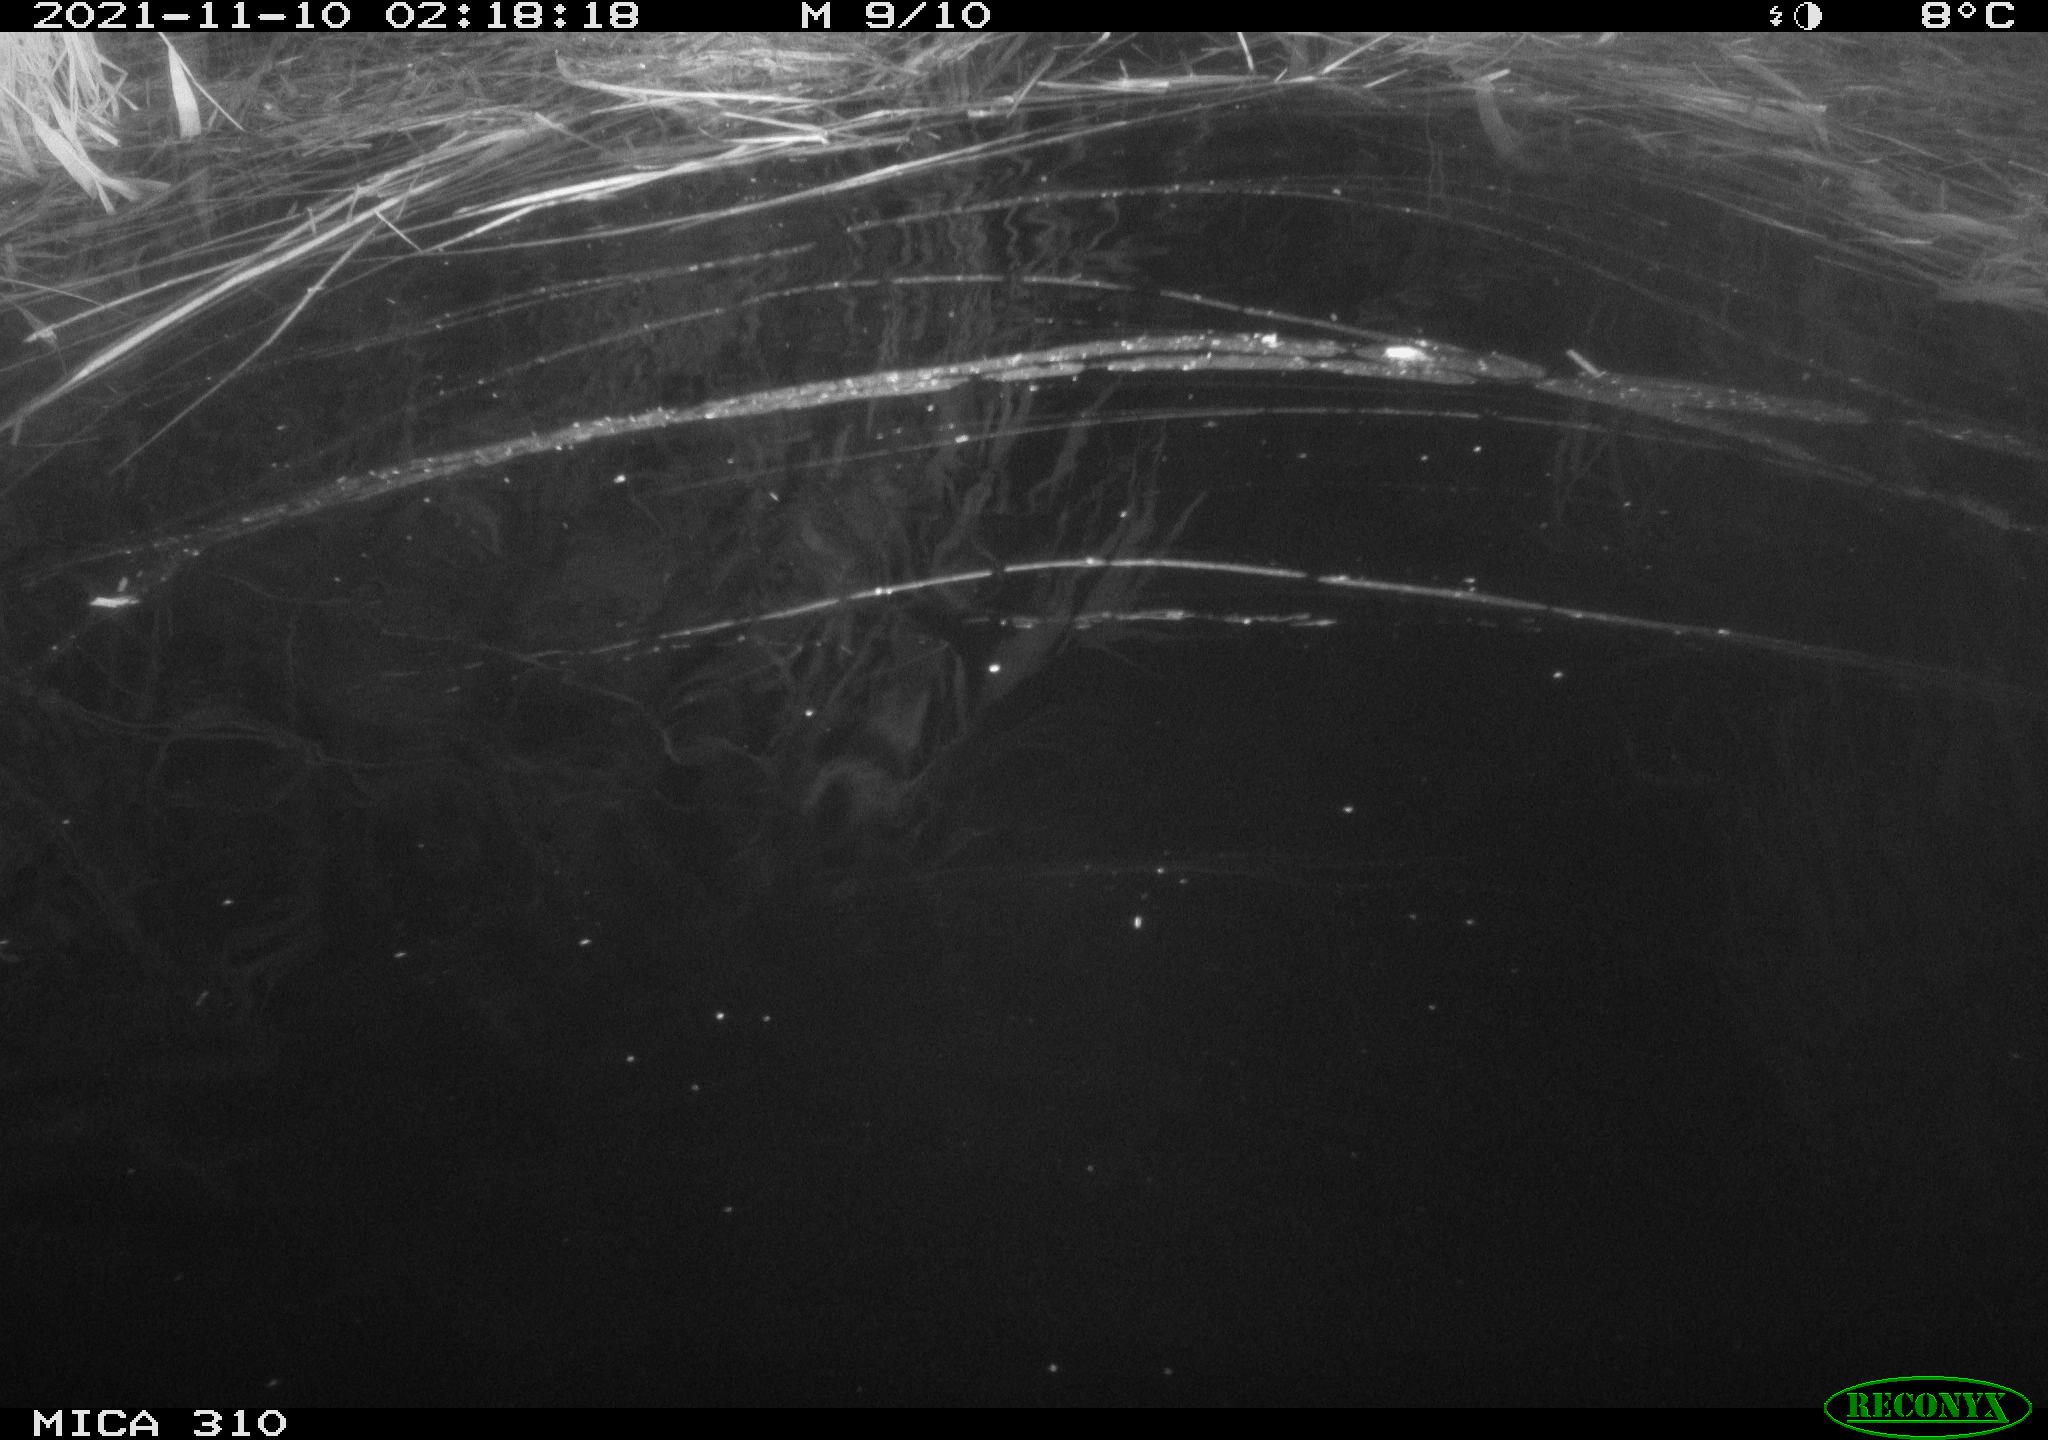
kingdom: Animalia
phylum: Chordata
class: Mammalia
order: Rodentia
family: Muridae
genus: Rattus
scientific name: Rattus norvegicus
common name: Brown rat
